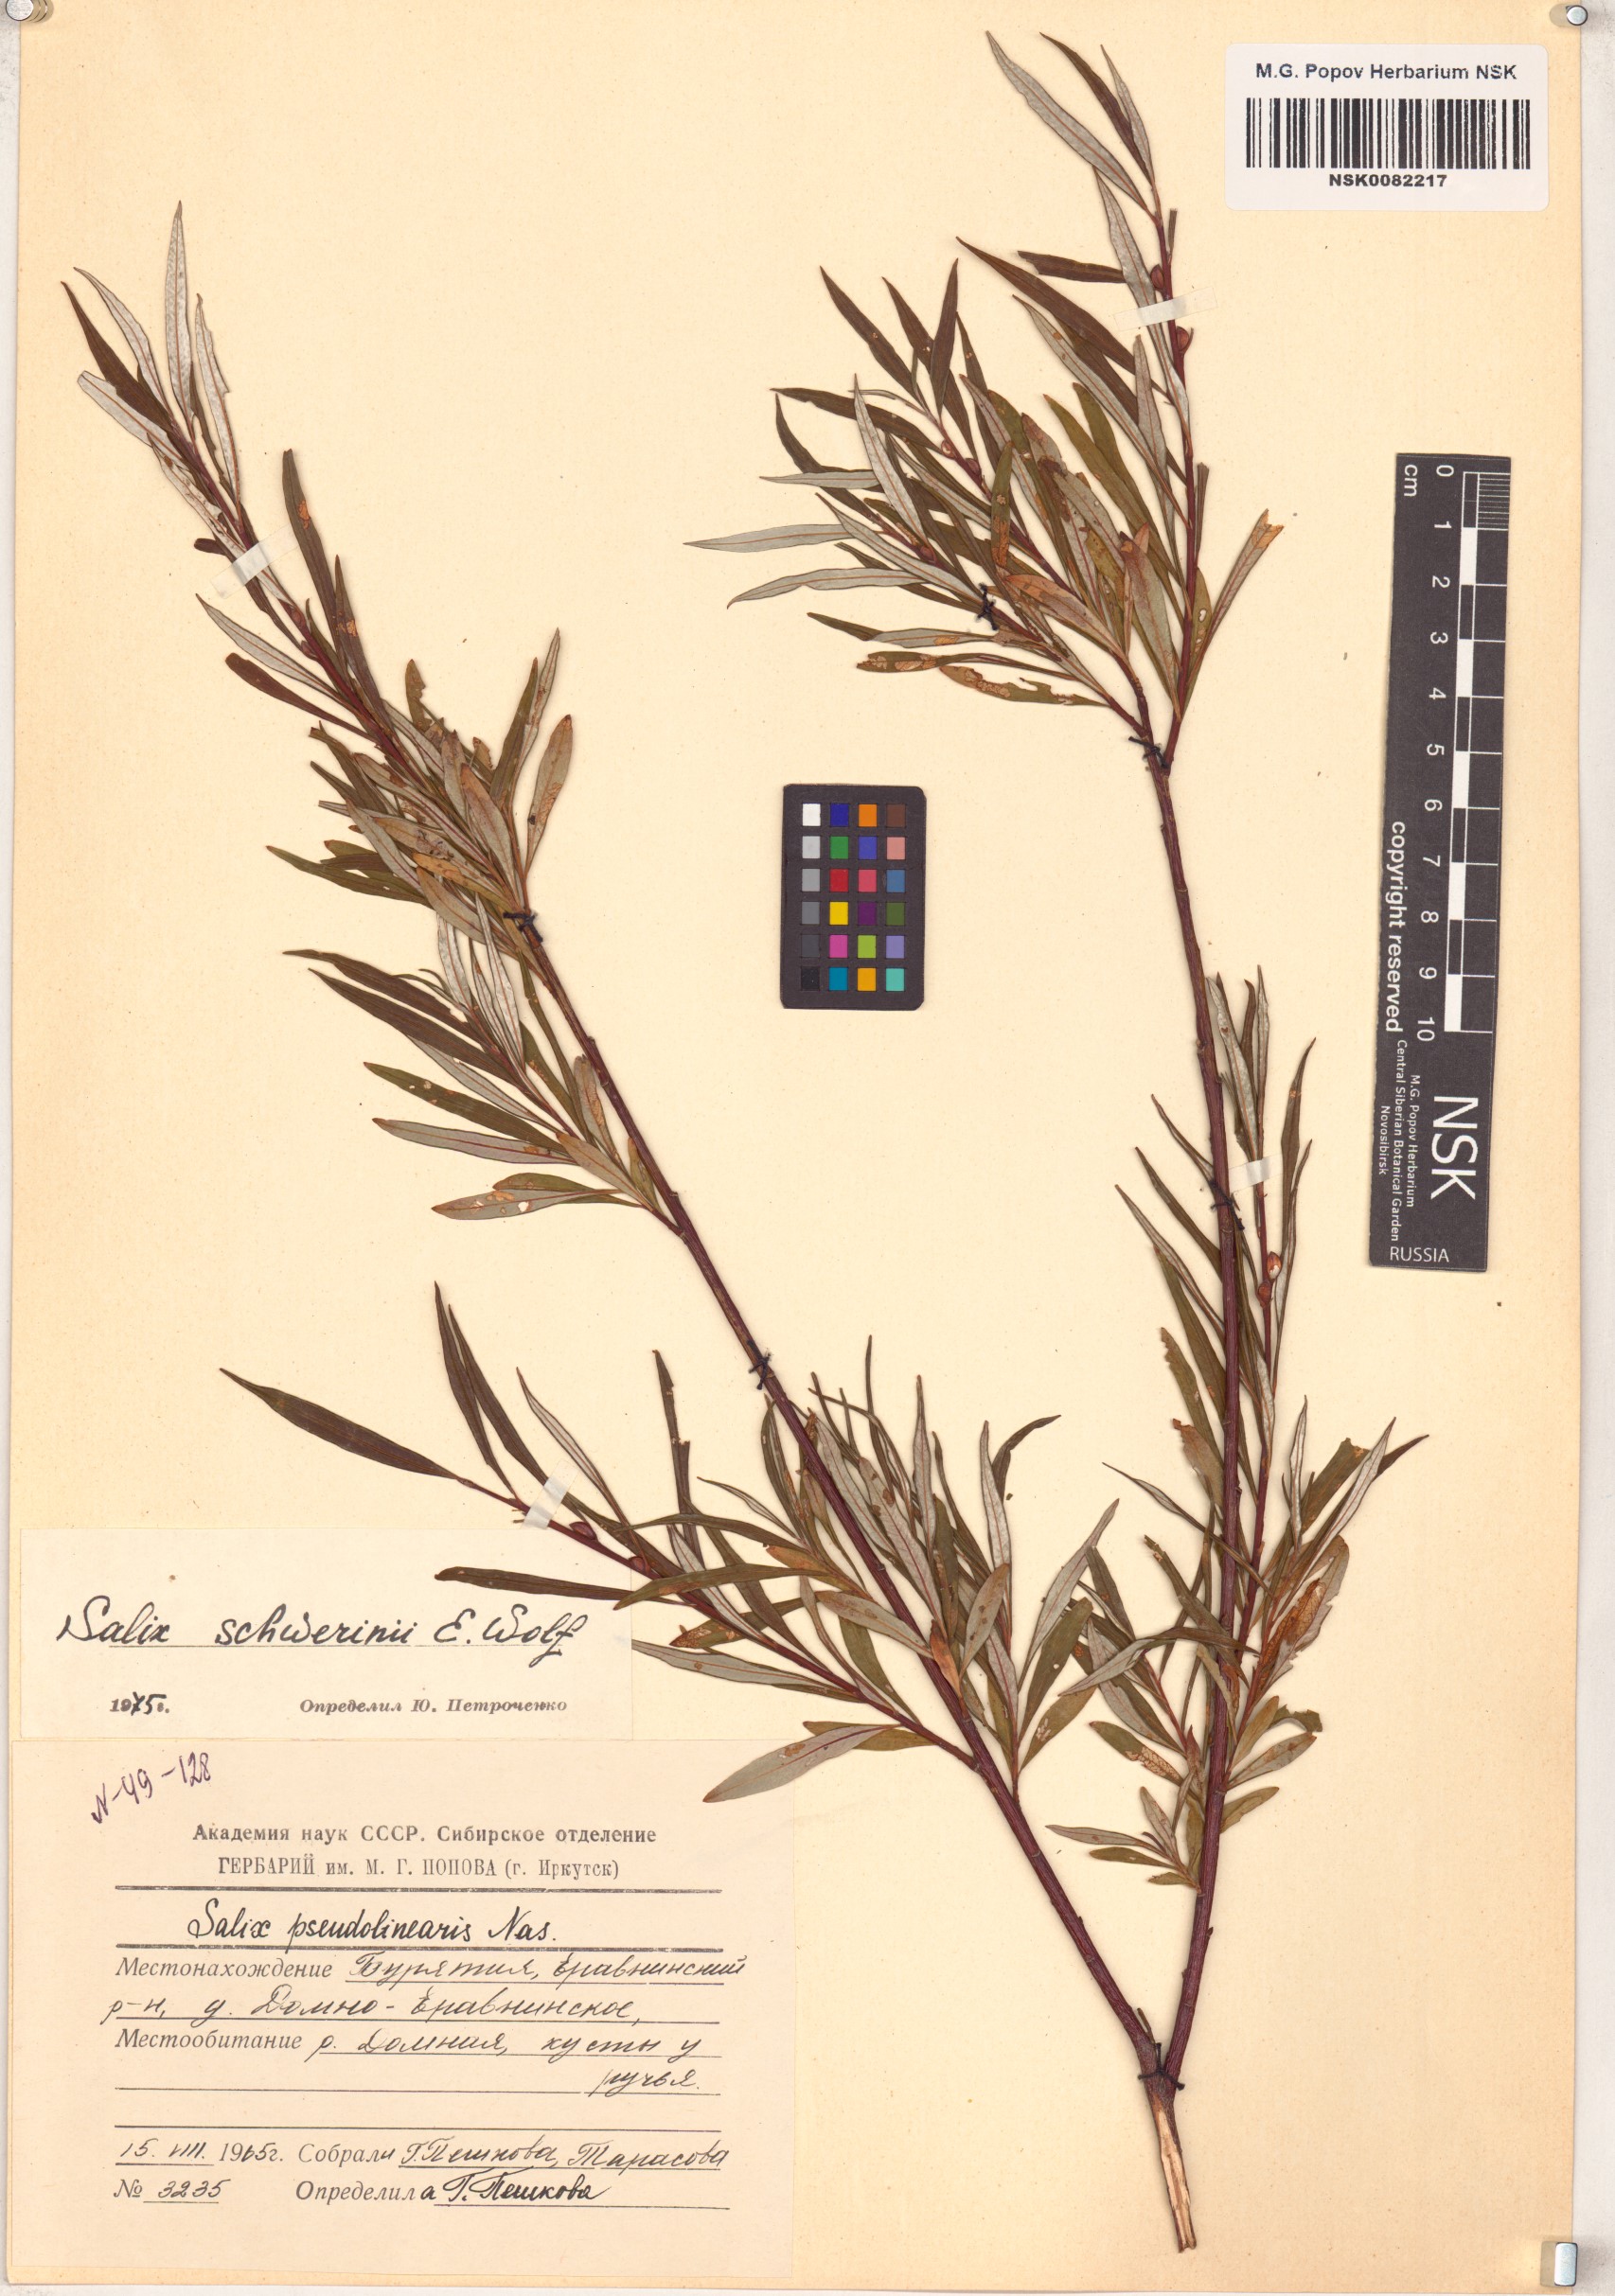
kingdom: Plantae
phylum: Tracheophyta
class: Magnoliopsida
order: Malpighiales
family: Salicaceae
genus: Salix
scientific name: Salix schwerinii
